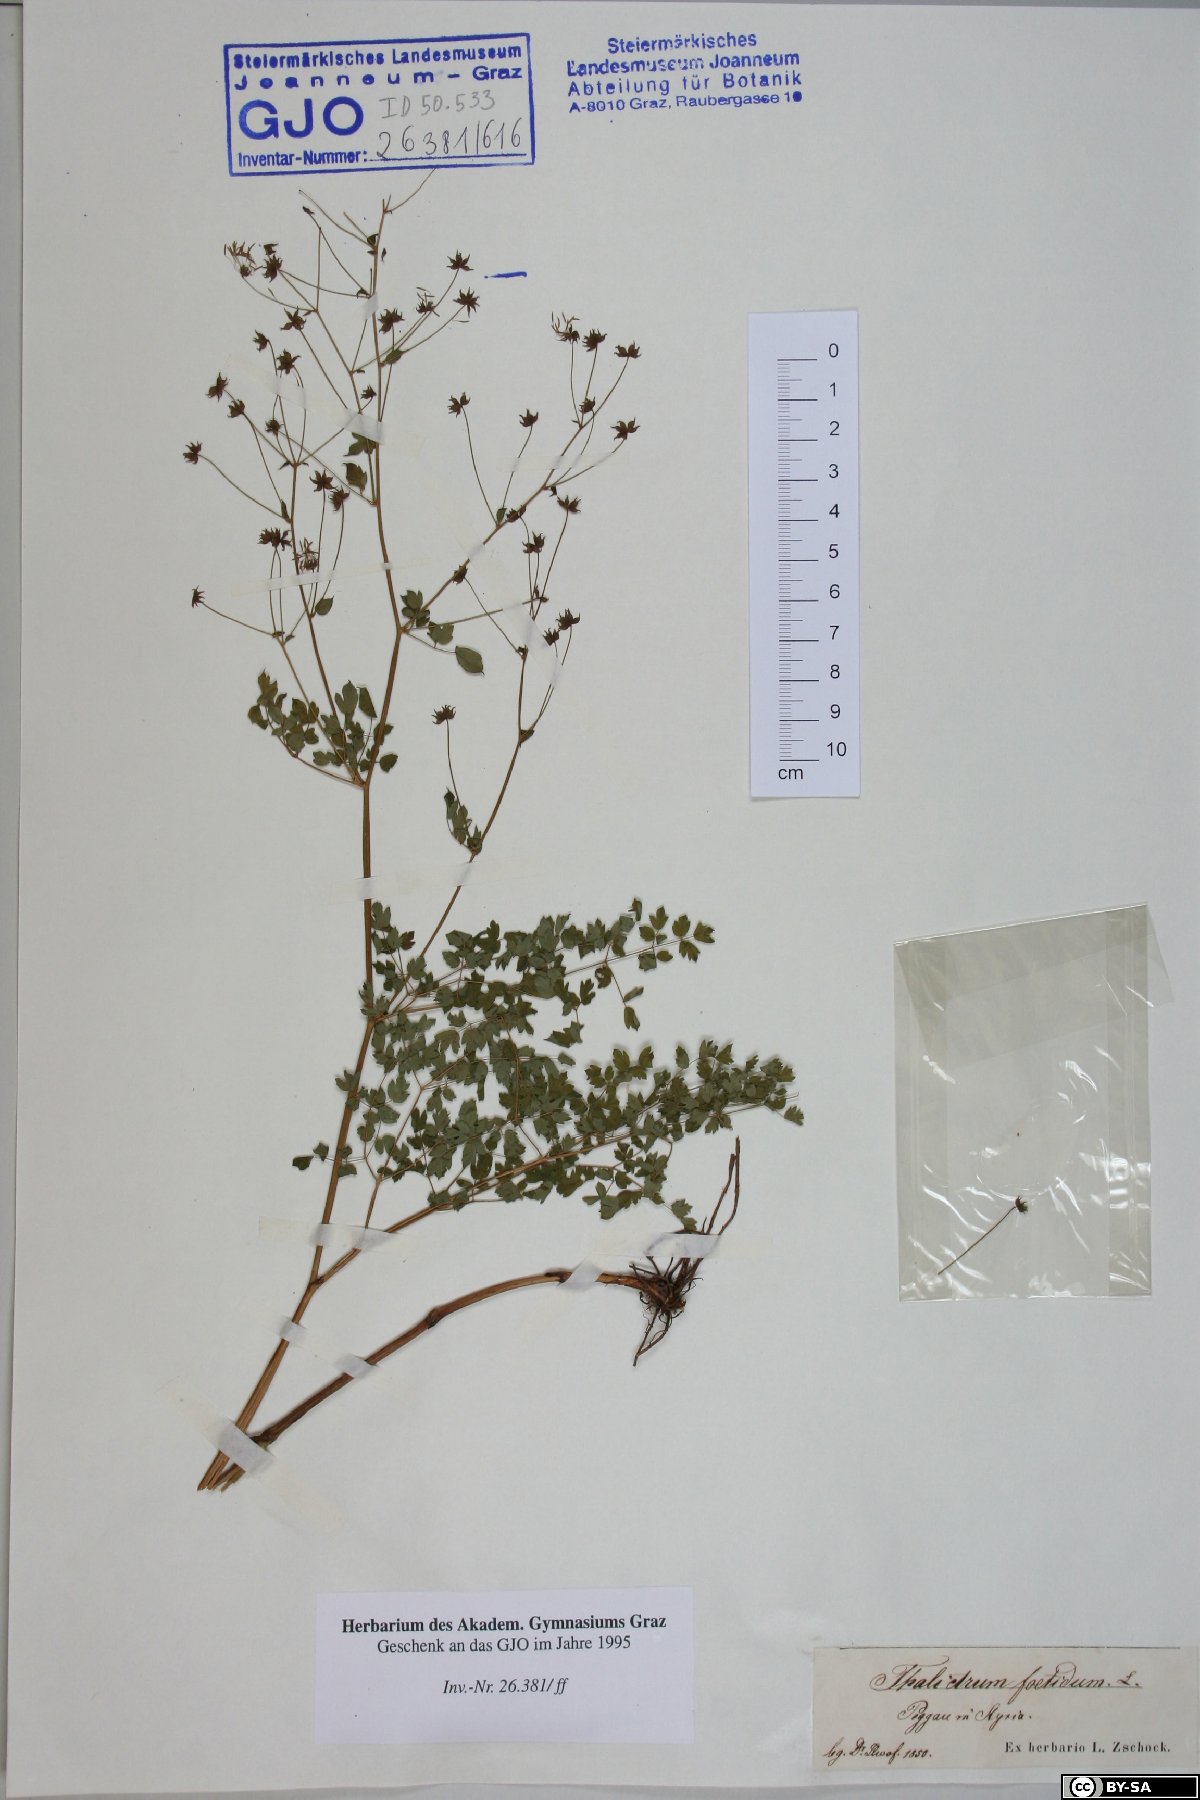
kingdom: Plantae
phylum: Tracheophyta
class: Magnoliopsida
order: Ranunculales
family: Ranunculaceae
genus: Thalictrum
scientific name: Thalictrum foetidum
